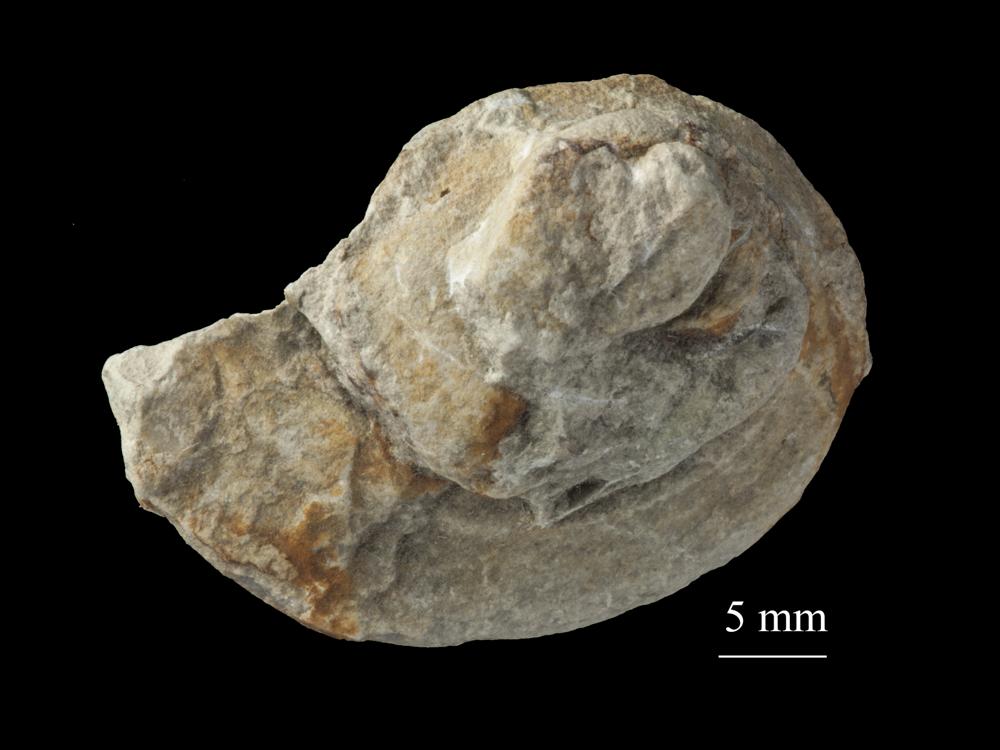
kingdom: Animalia
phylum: Mollusca
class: Gastropoda
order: Neogastropoda
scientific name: Neogastropoda
